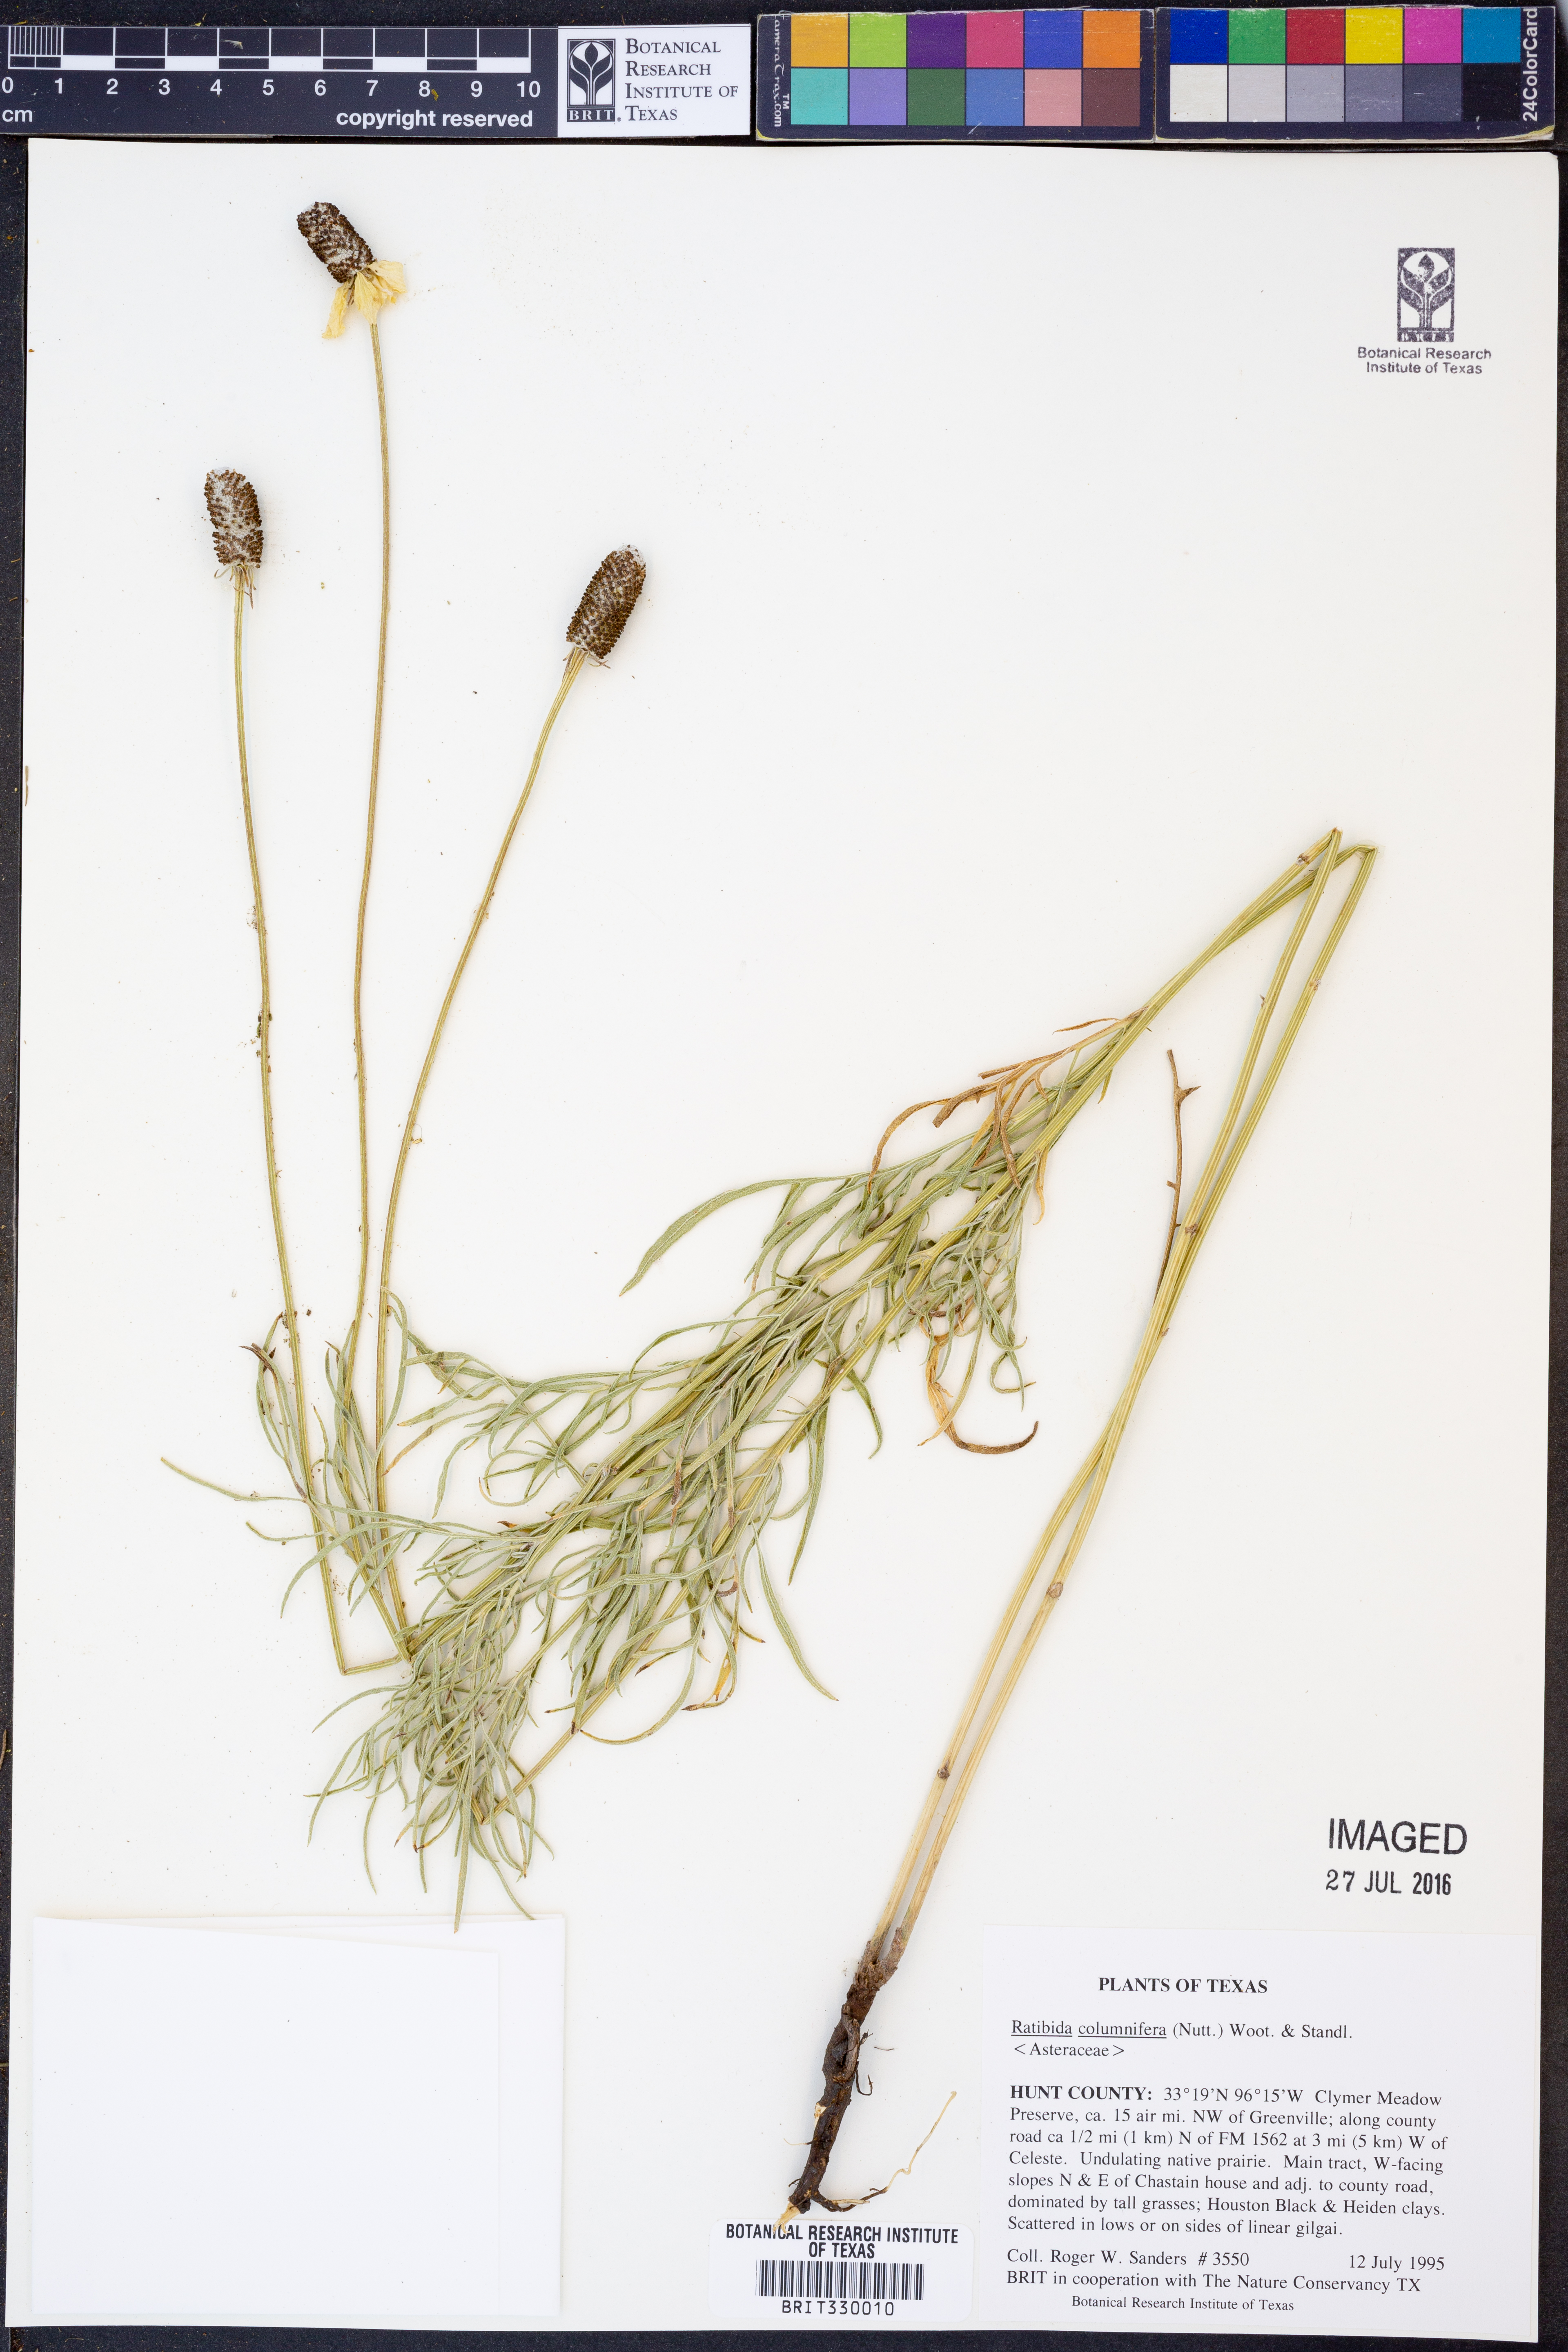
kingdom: Plantae
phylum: Tracheophyta
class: Magnoliopsida
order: Asterales
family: Asteraceae
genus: Ratibida
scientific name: Ratibida columnifera
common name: Prairie coneflower
